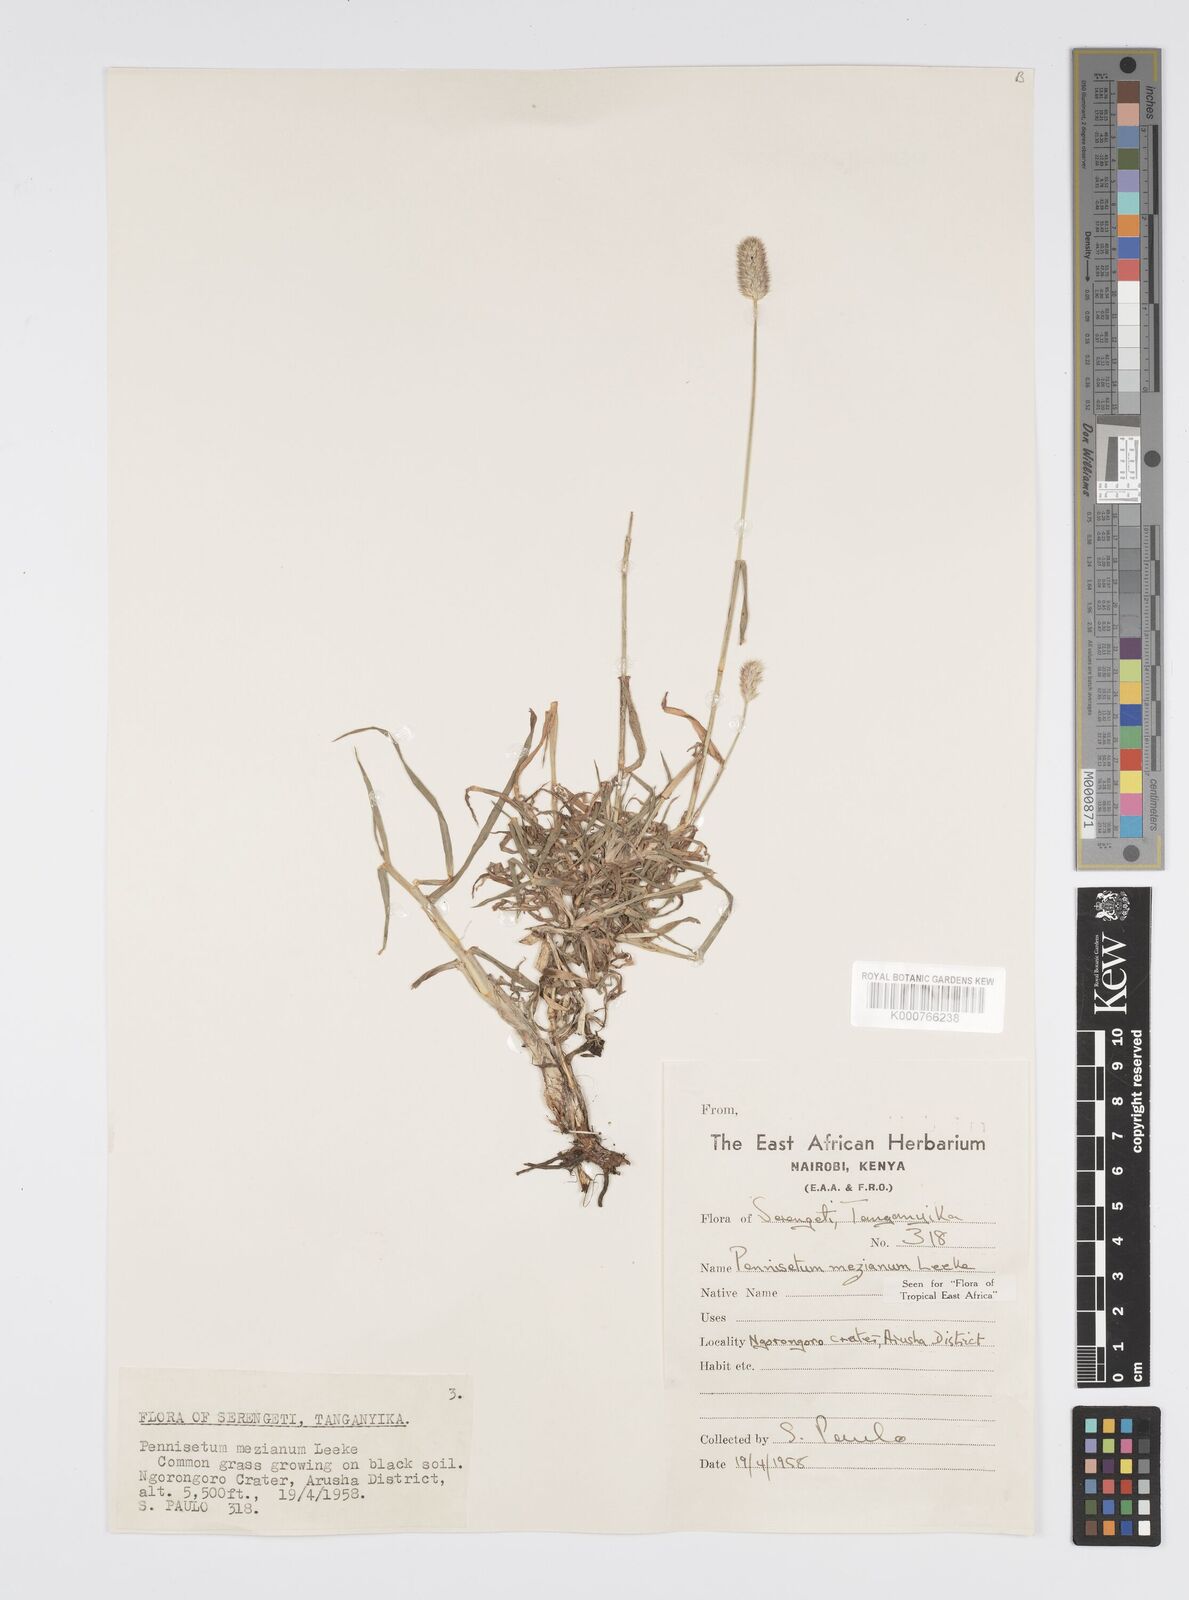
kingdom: Plantae
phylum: Tracheophyta
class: Liliopsida
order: Poales
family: Poaceae
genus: Cenchrus
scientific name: Cenchrus mezianus
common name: Bamboo grass
